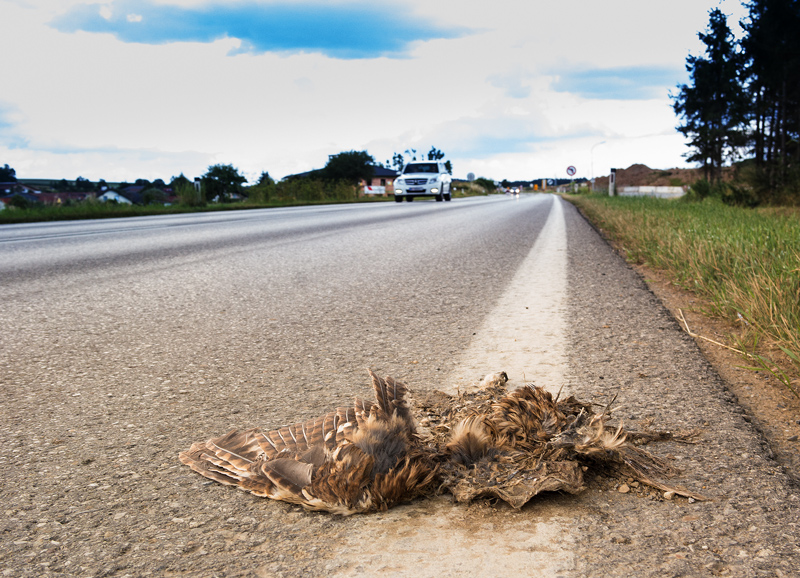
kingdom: Animalia
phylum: Chordata
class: Aves
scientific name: Aves
